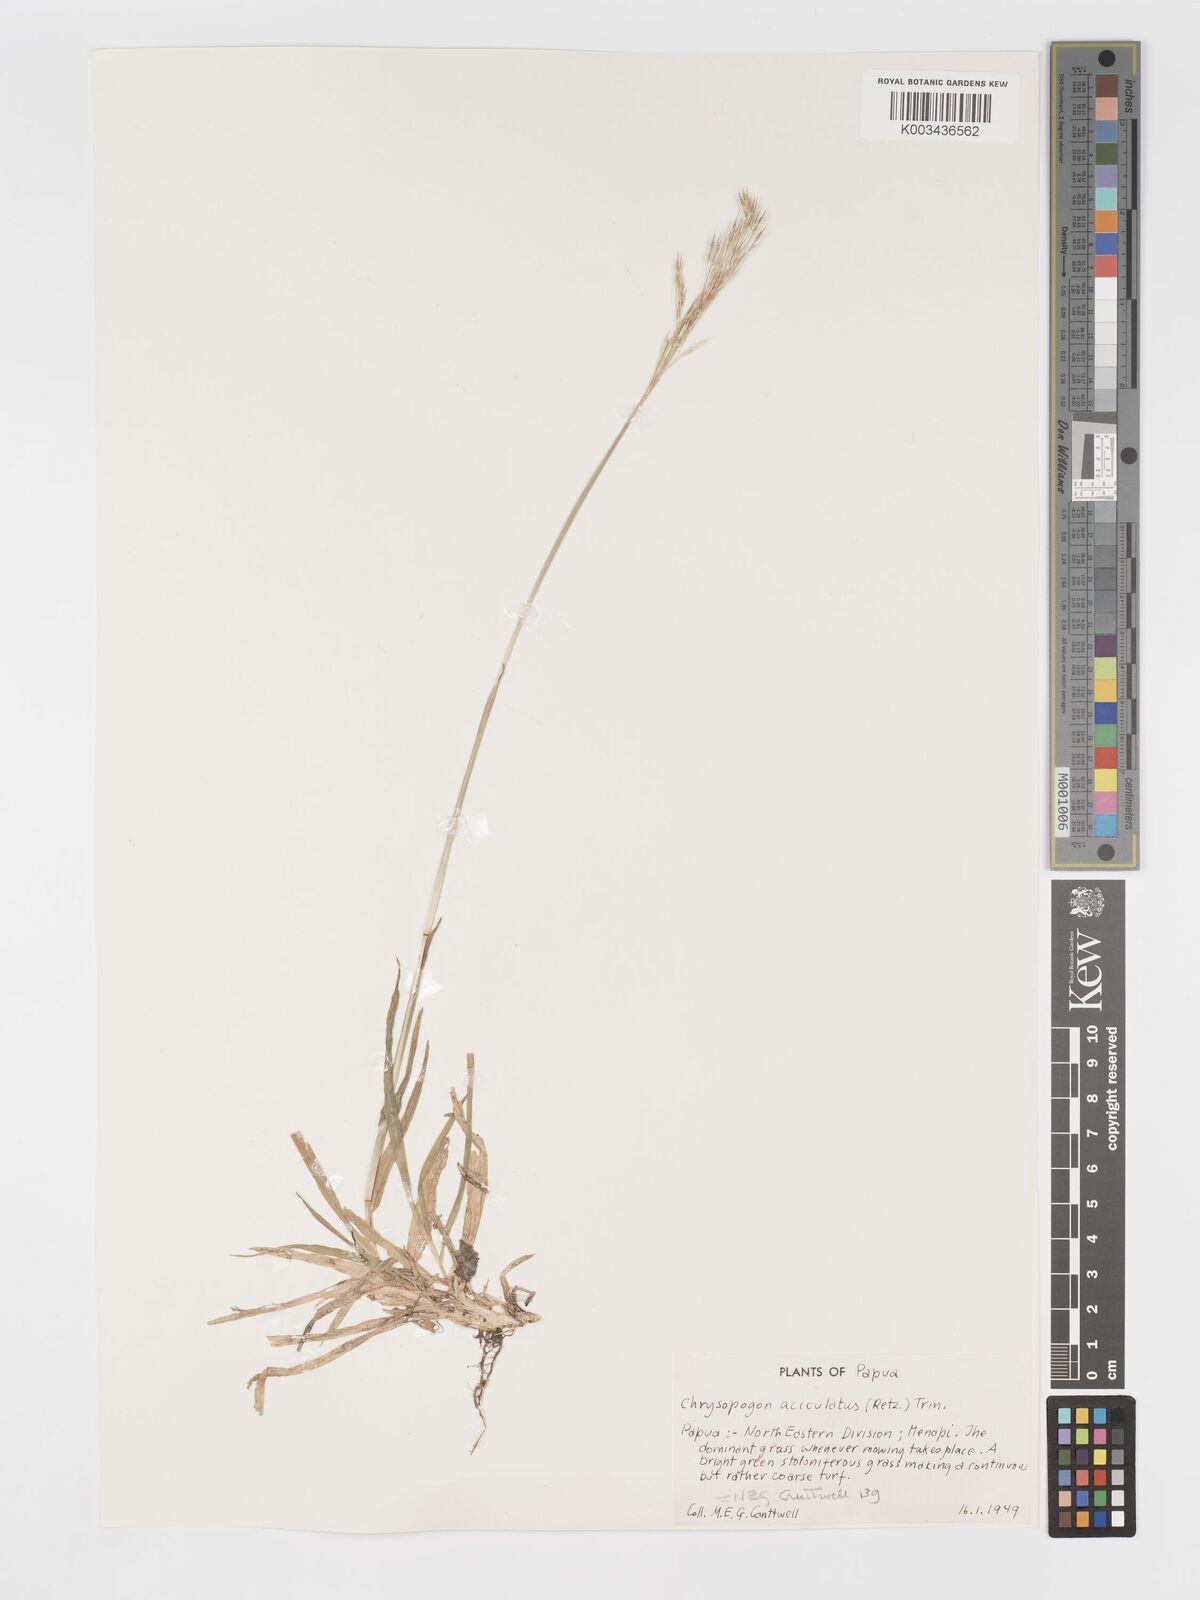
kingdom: Plantae
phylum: Tracheophyta
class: Liliopsida
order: Poales
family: Poaceae
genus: Chrysopogon
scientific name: Chrysopogon aciculatus
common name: Pilipiliula
